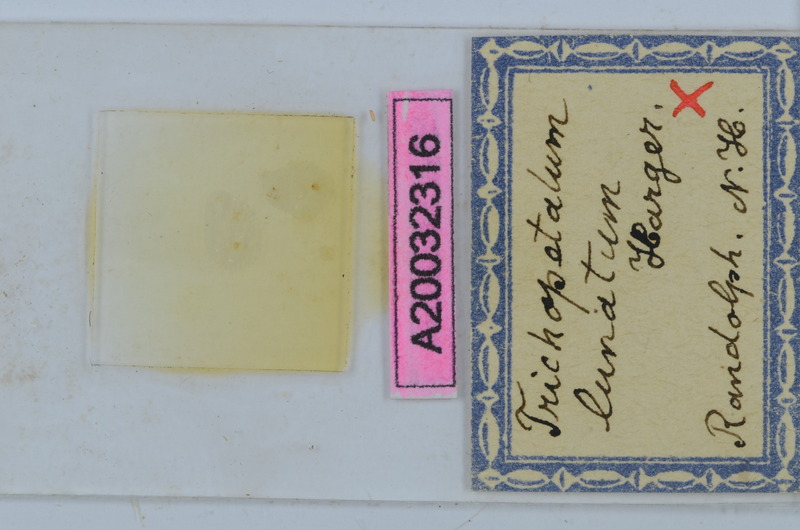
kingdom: Animalia
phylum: Arthropoda
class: Diplopoda
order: Chordeumatida
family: Trichopetalidae
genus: Trichopetalum
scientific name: Trichopetalum lunatum
